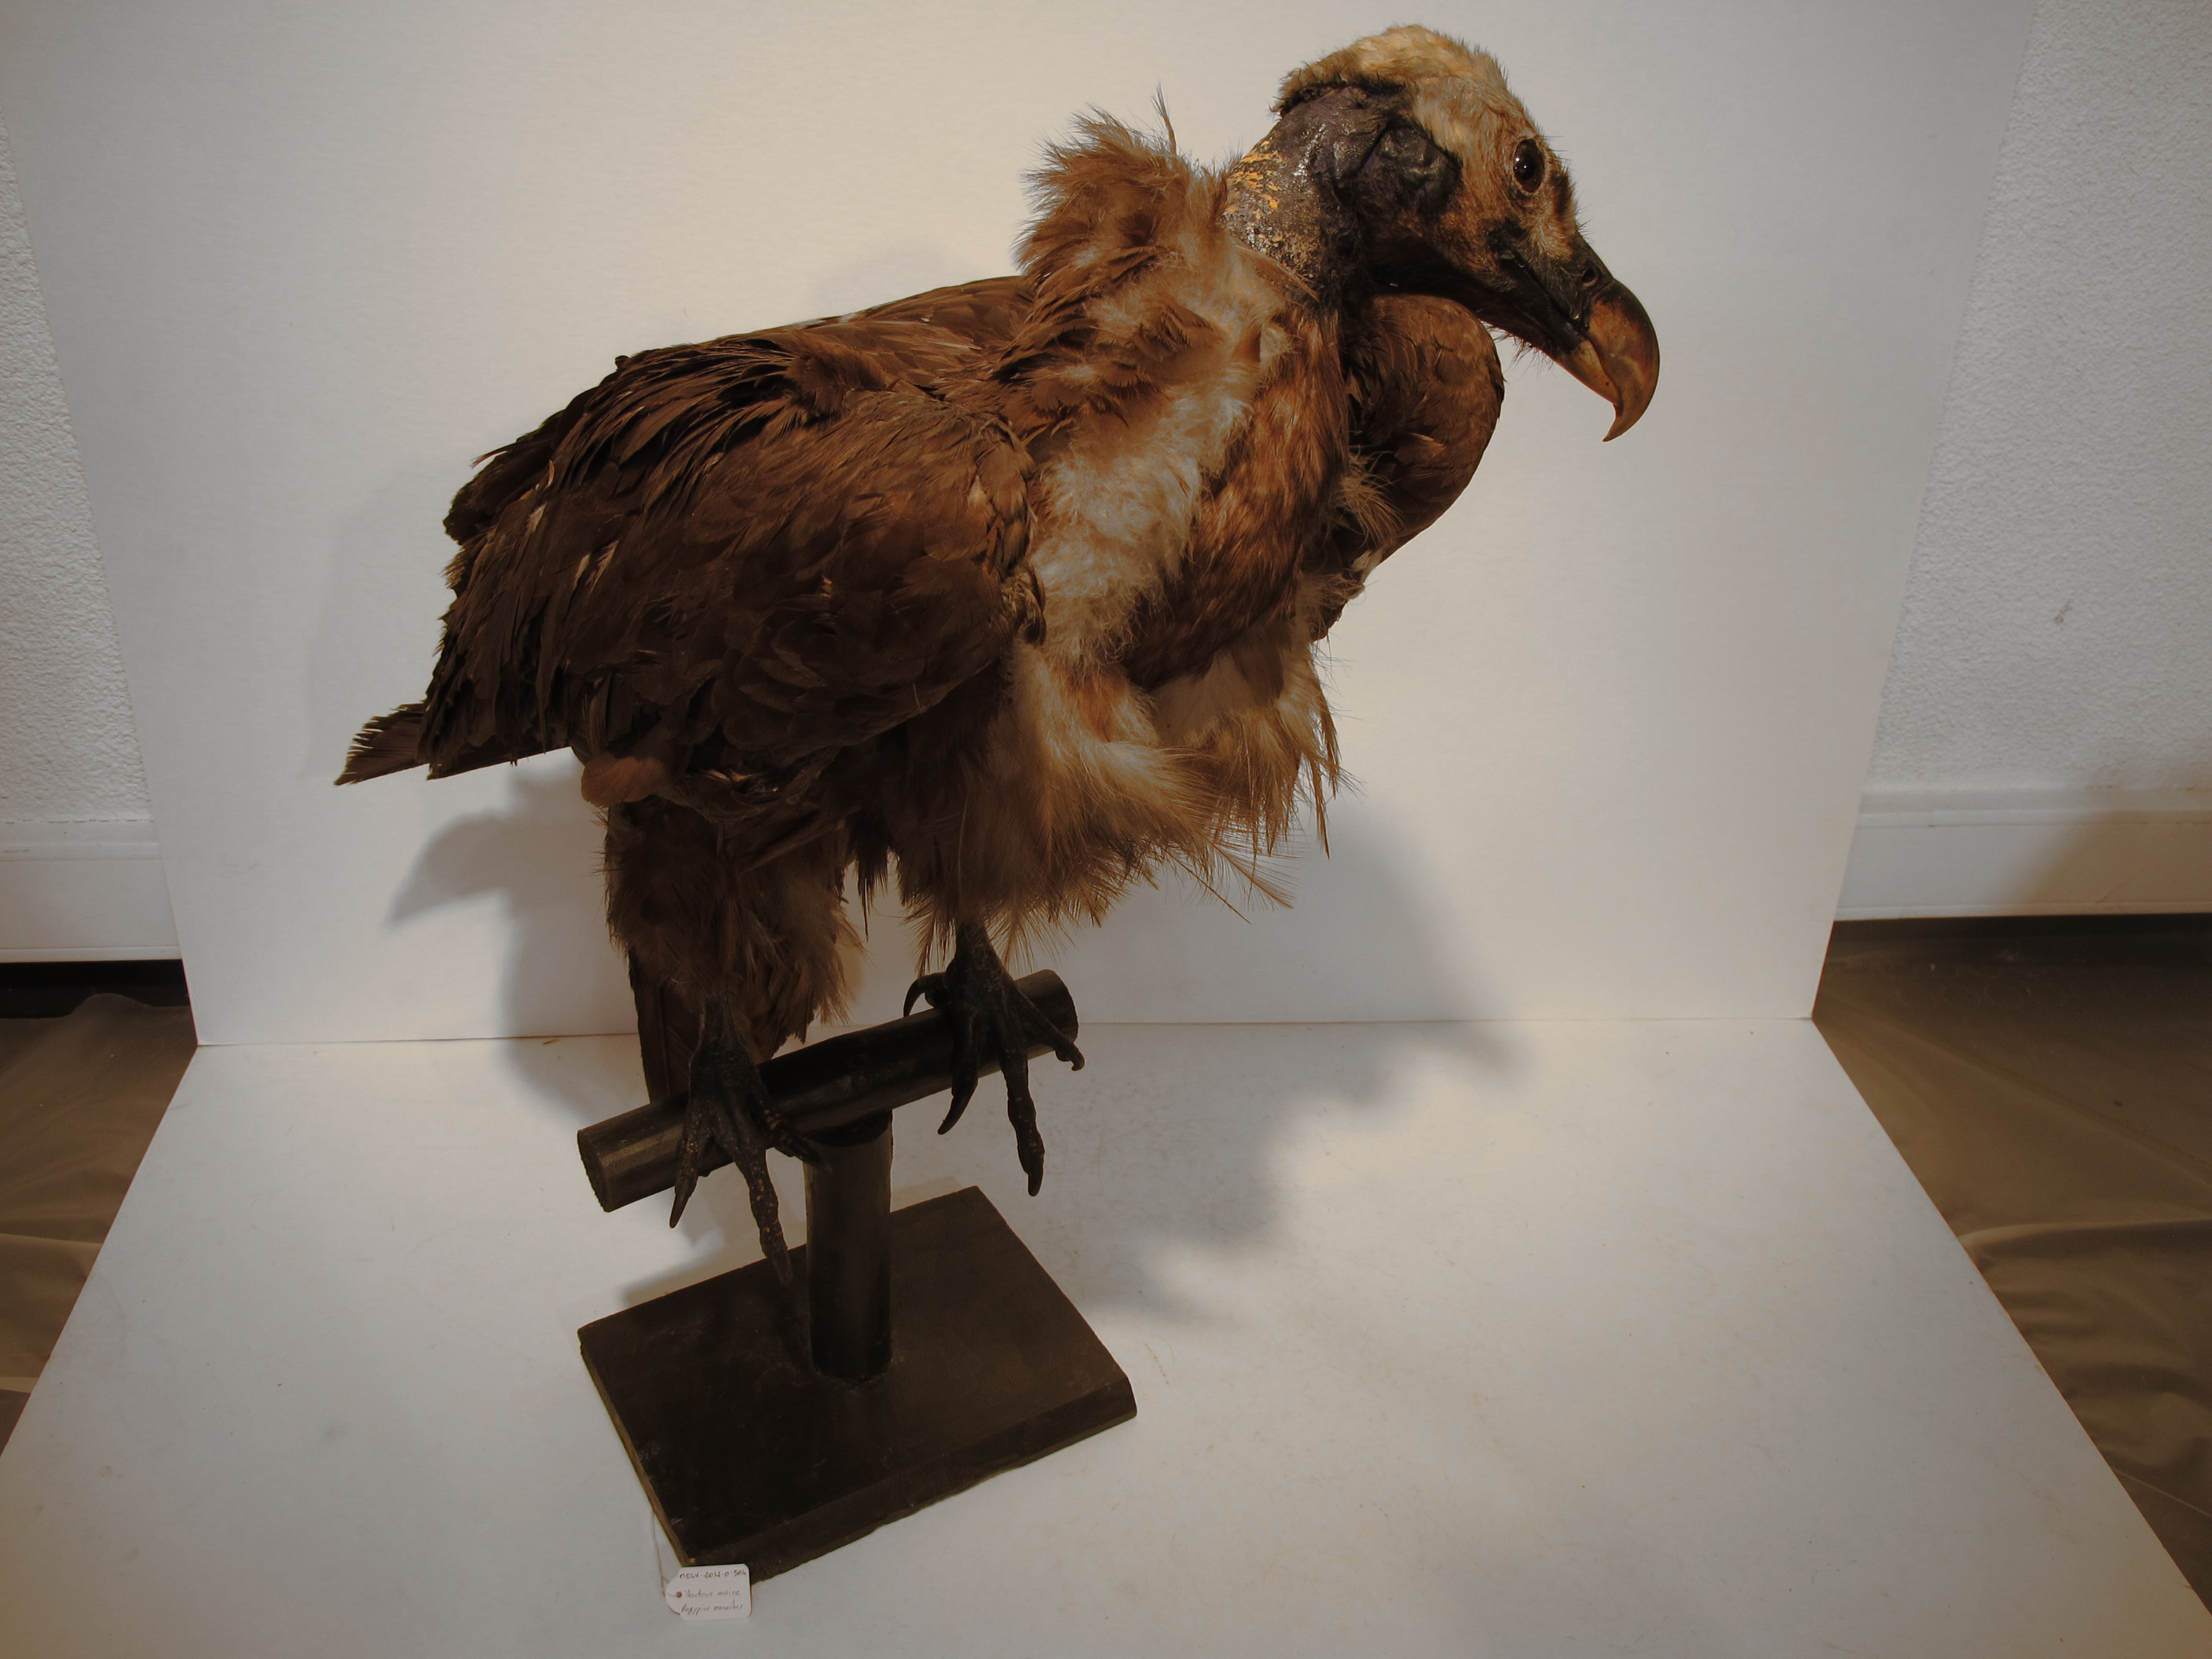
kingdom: Animalia
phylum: Chordata
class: Aves
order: Accipitriformes
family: Accipitridae
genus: Aegypius
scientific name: Aegypius monachus
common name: Eurasian Black Vulture
